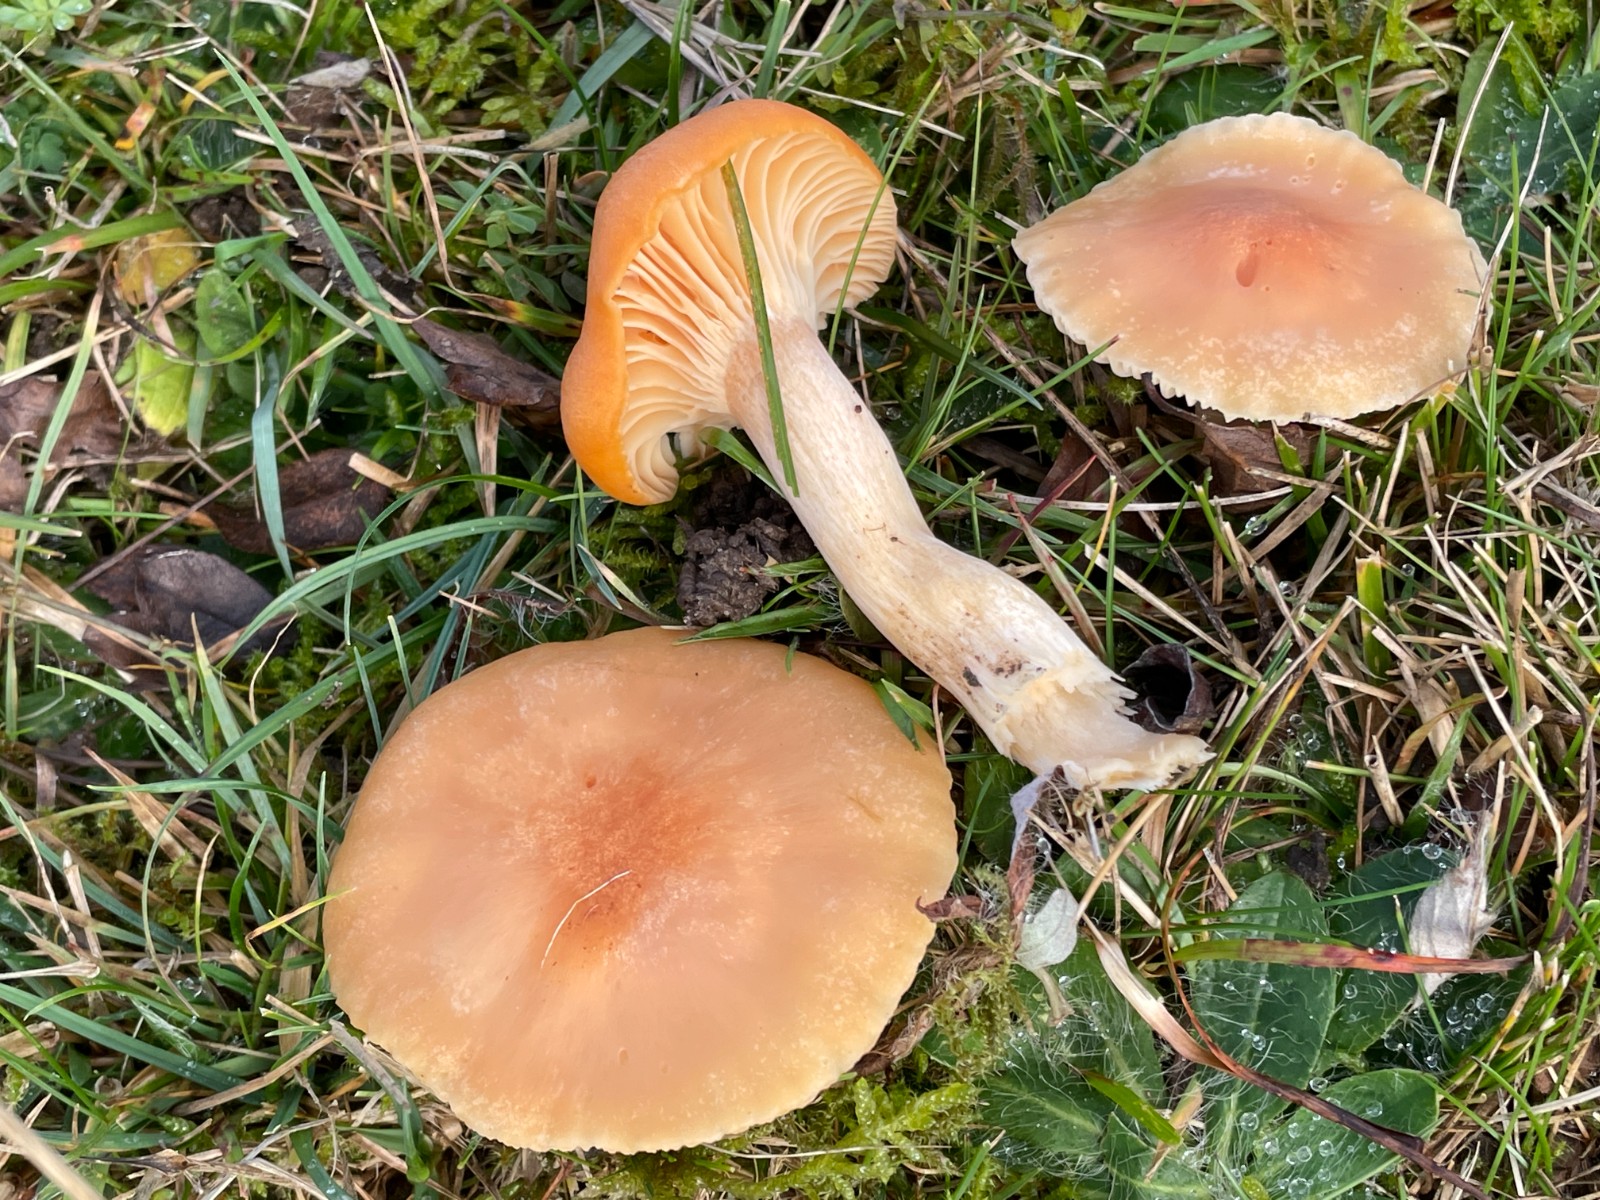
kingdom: Fungi
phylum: Basidiomycota
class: Agaricomycetes
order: Agaricales
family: Hygrophoraceae
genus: Cuphophyllus
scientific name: Cuphophyllus pratensis
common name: eng-vokshat
